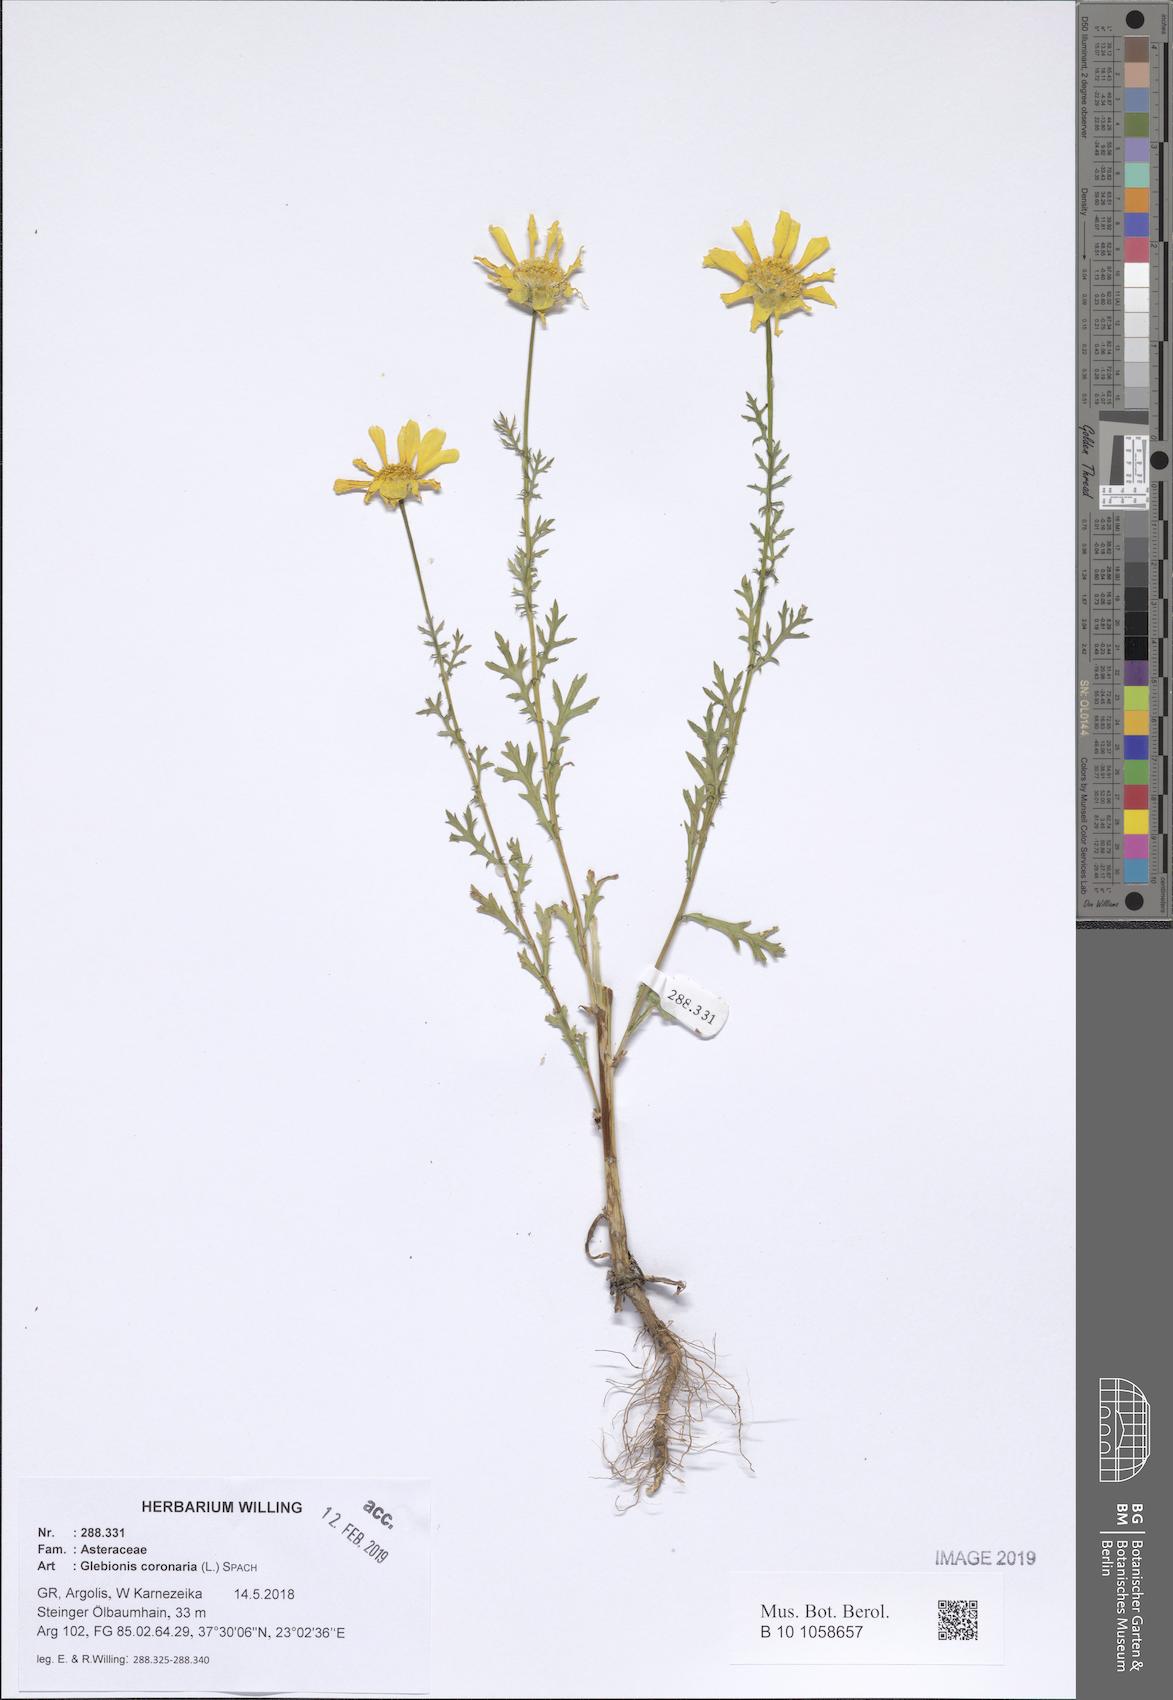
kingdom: Plantae
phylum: Tracheophyta
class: Magnoliopsida
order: Asterales
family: Asteraceae
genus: Glebionis
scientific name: Glebionis coronaria
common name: Crowndaisy
